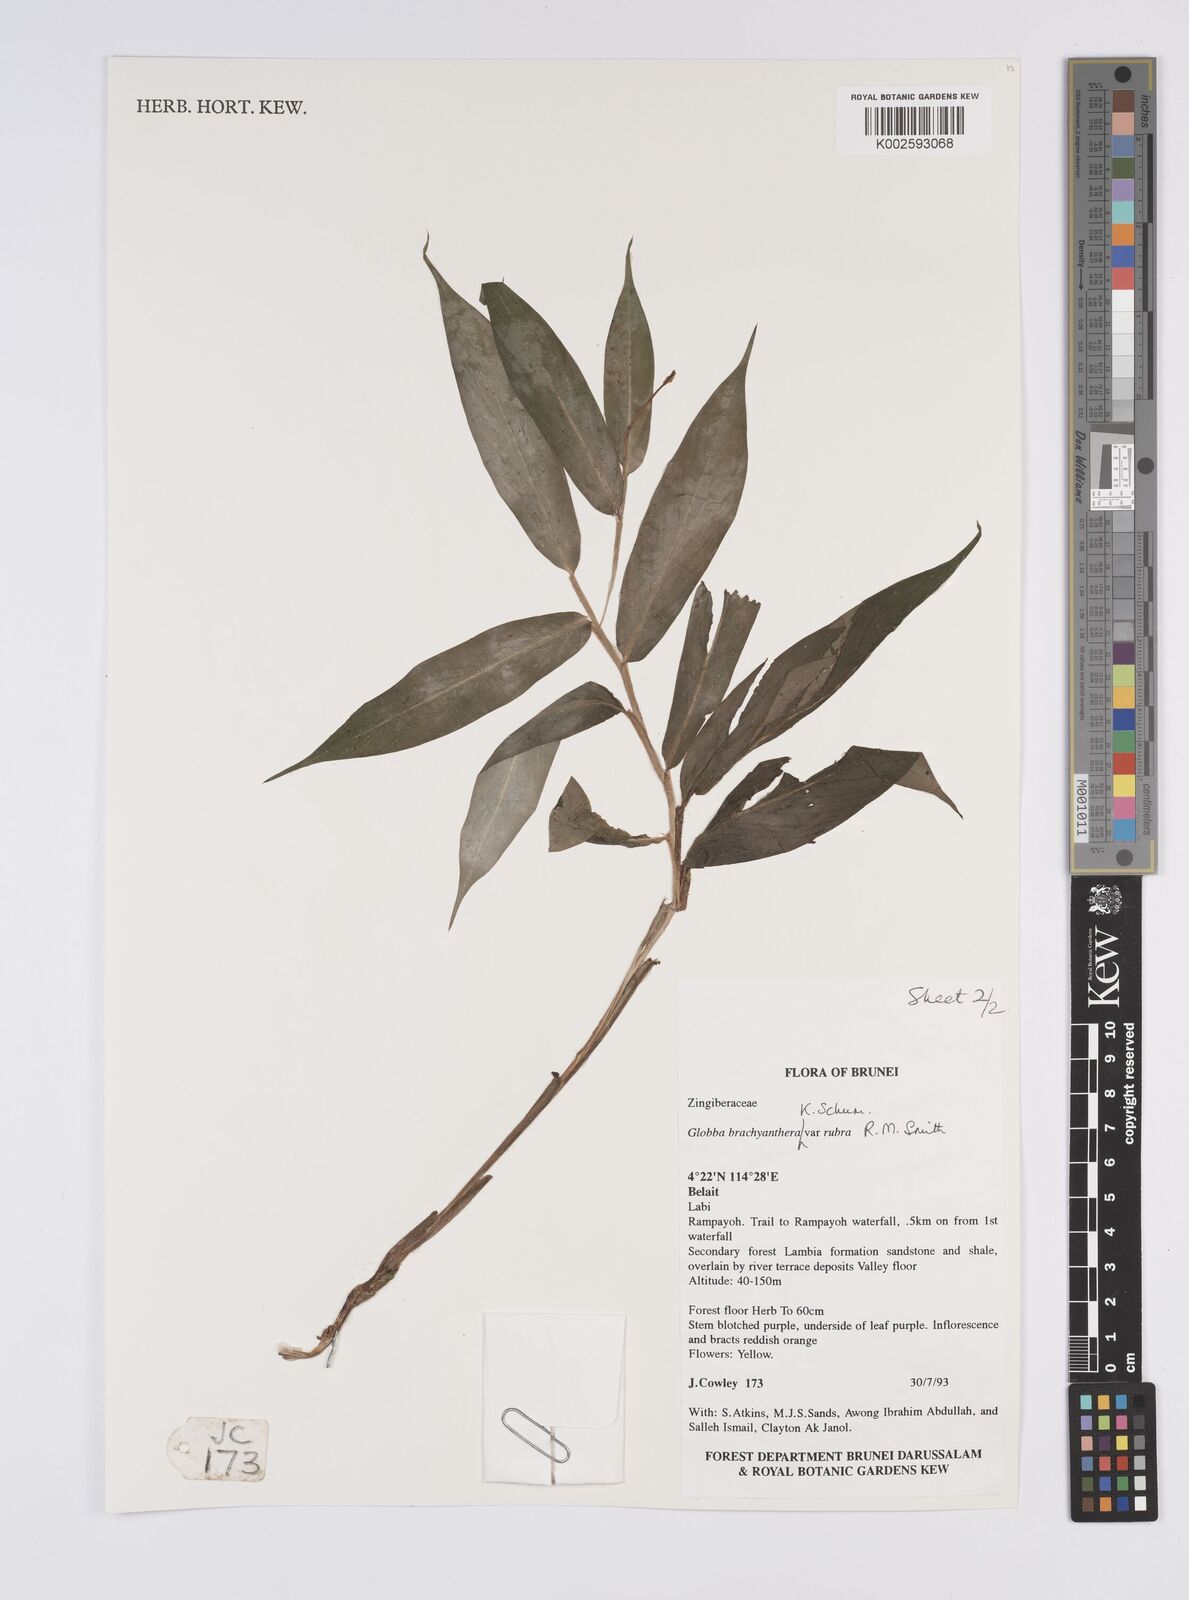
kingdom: Plantae
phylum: Tracheophyta
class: Liliopsida
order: Zingiberales
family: Zingiberaceae
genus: Globba
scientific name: Globba brachyanthera
